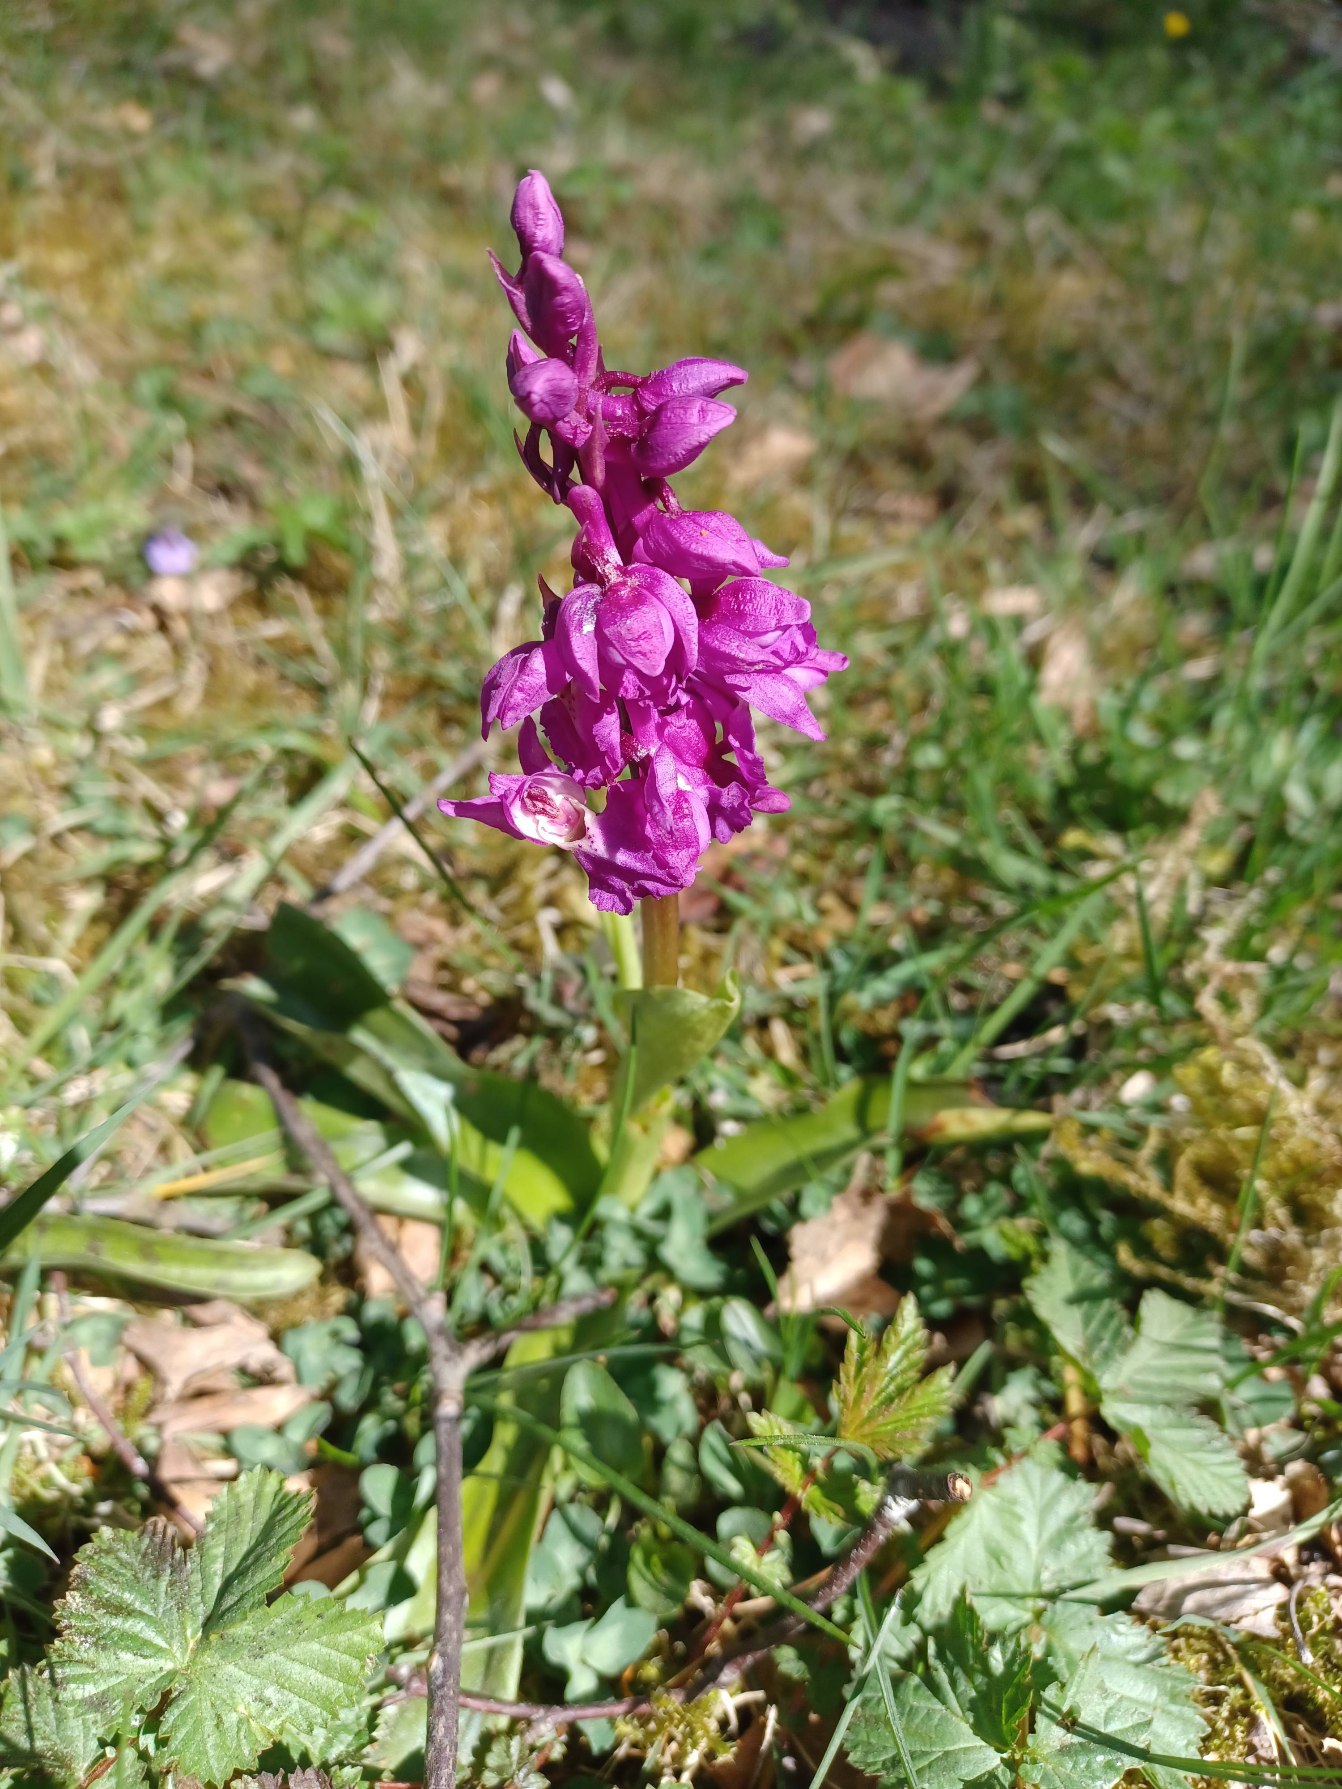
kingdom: Plantae
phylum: Tracheophyta
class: Liliopsida
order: Asparagales
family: Orchidaceae
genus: Orchis
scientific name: Orchis mascula
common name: Tyndakset gøgeurt
